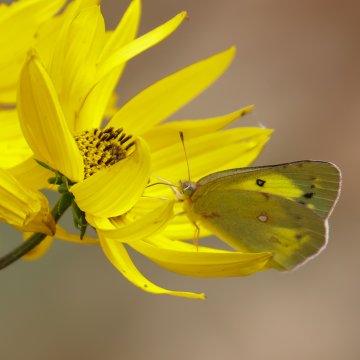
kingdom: Animalia
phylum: Arthropoda
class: Insecta
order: Lepidoptera
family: Pieridae
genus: Colias
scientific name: Colias philodice
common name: Clouded Sulphur
